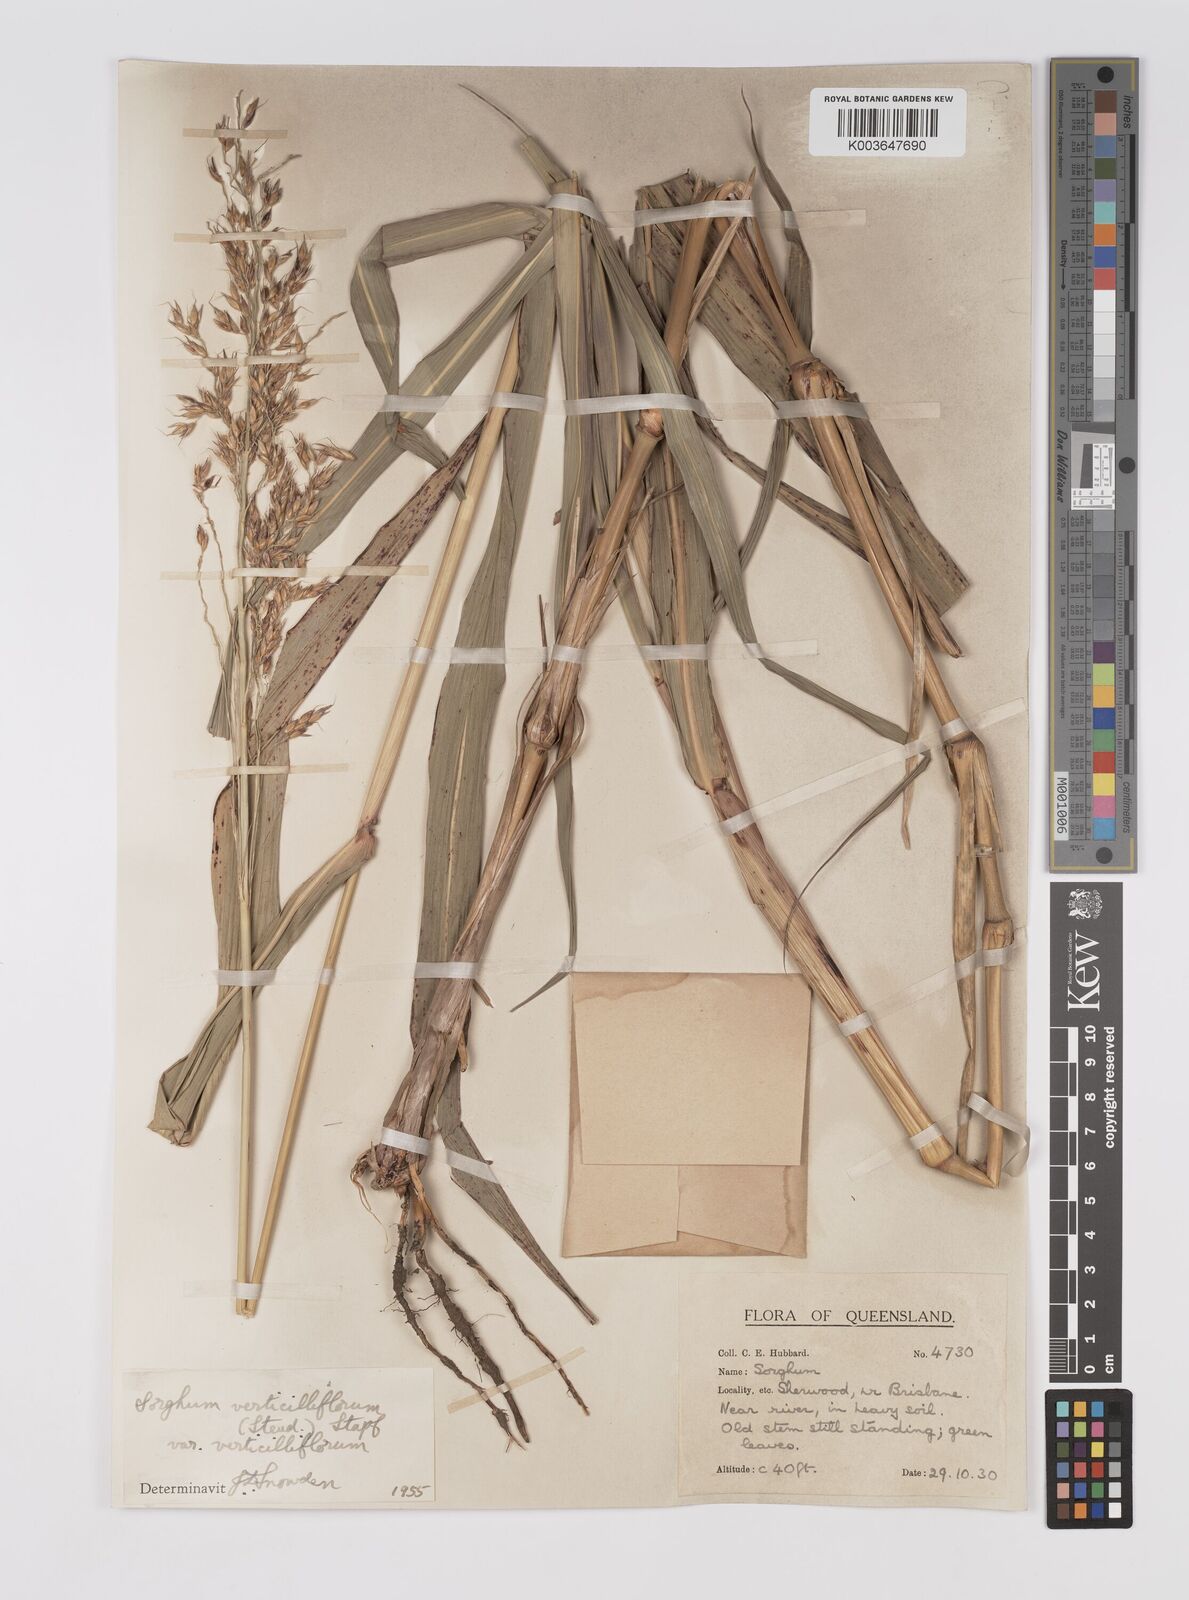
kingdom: Plantae
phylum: Tracheophyta
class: Liliopsida
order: Poales
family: Poaceae
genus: Sorghum
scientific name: Sorghum arundinaceum
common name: Sorghum
